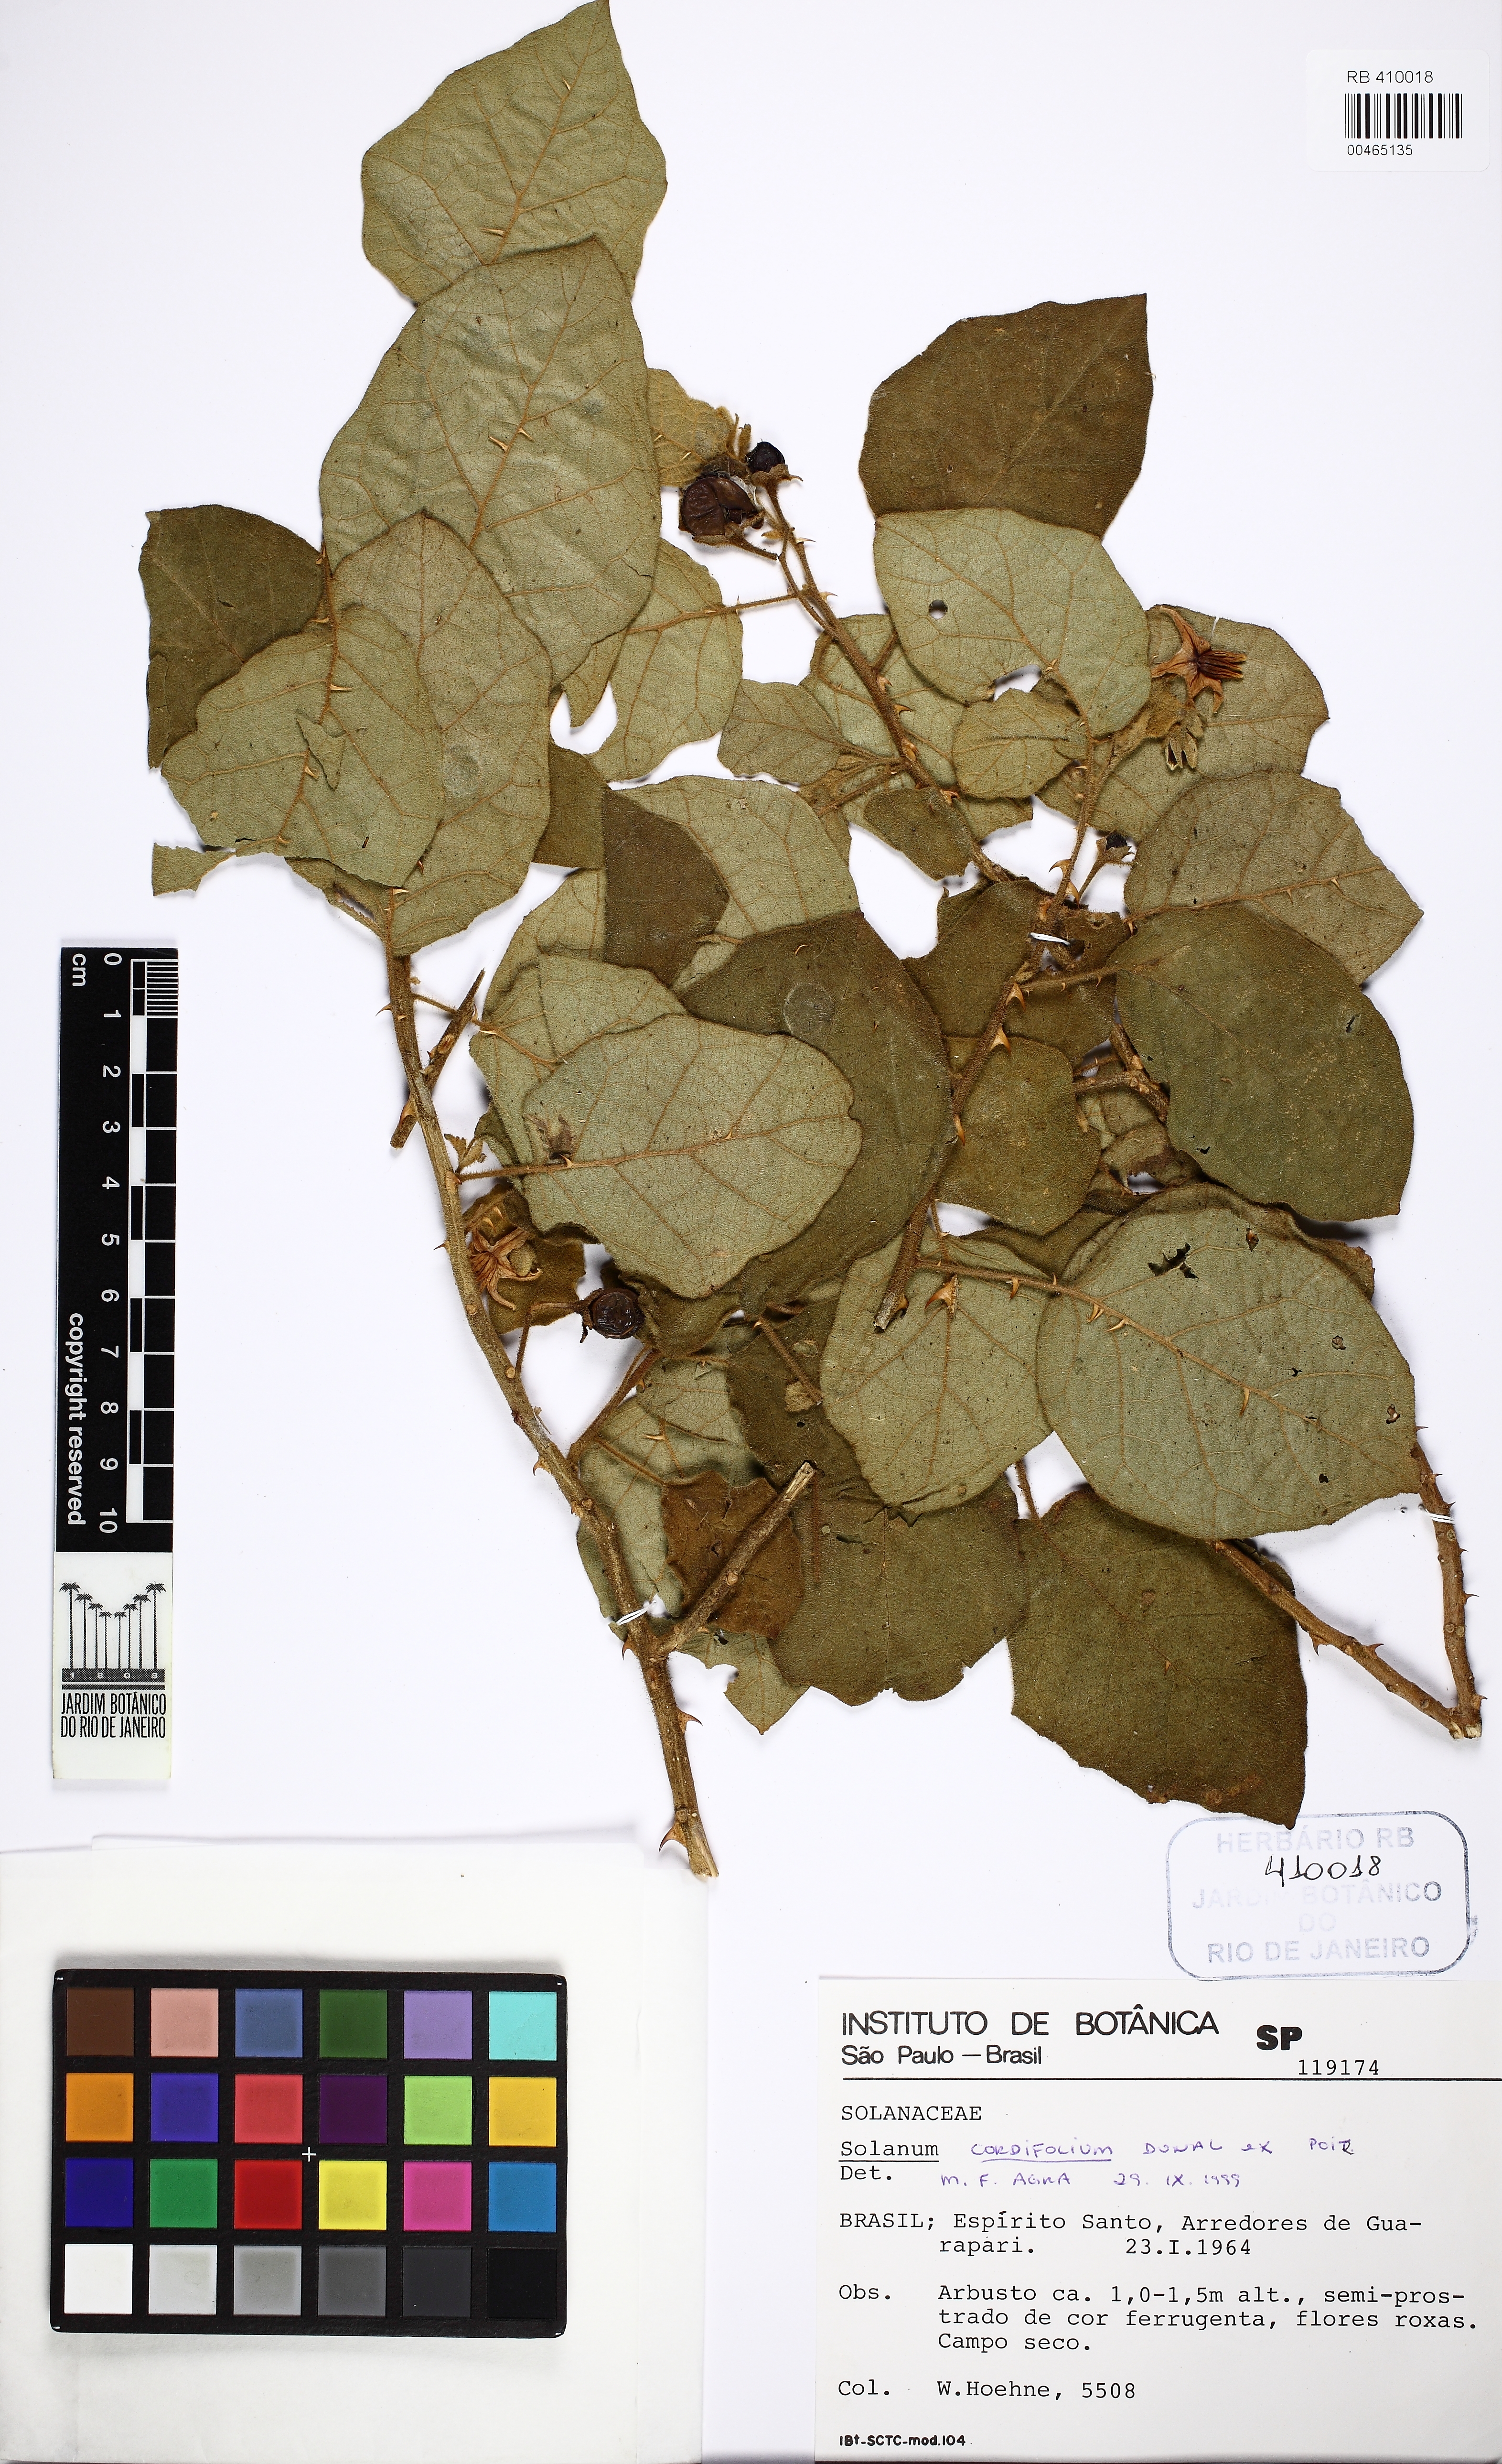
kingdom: Plantae
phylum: Tracheophyta
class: Magnoliopsida
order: Solanales
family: Solanaceae
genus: Solanum
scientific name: Solanum cordifolium
